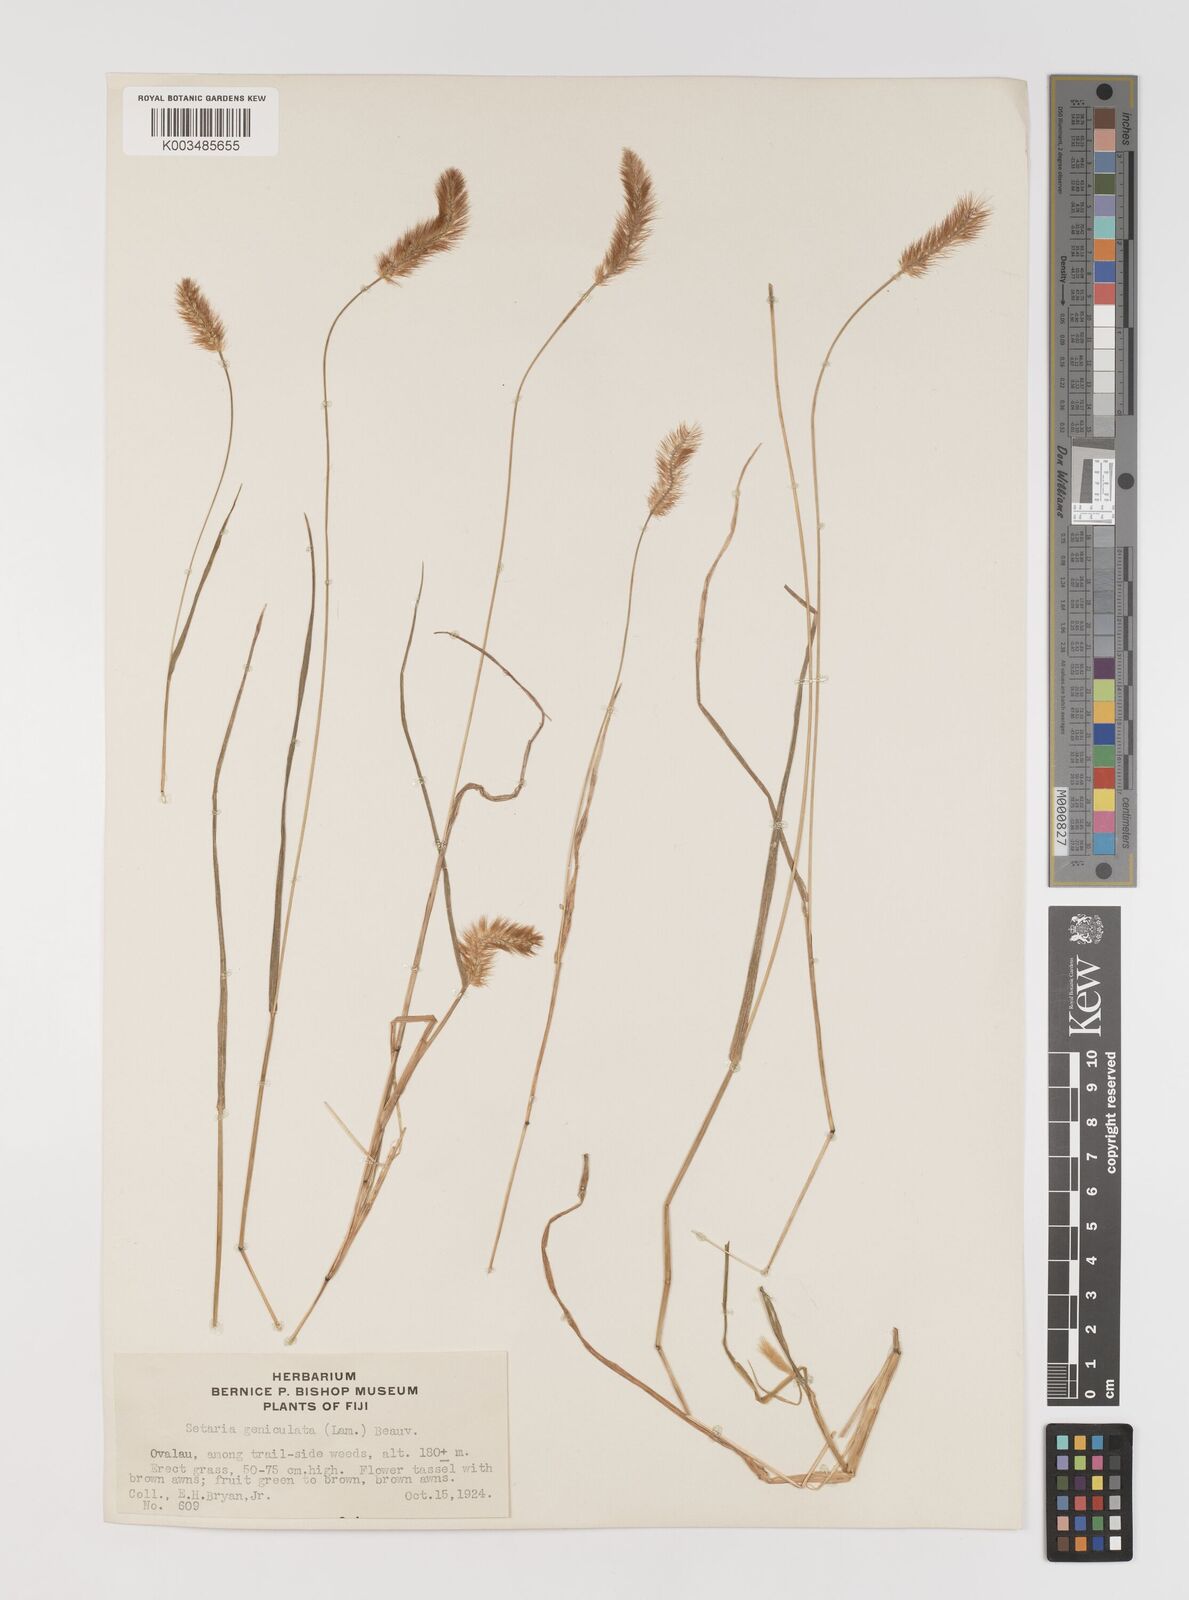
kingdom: Plantae
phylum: Tracheophyta
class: Liliopsida
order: Poales
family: Poaceae
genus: Setaria
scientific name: Setaria parviflora
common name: Knotroot bristle-grass
